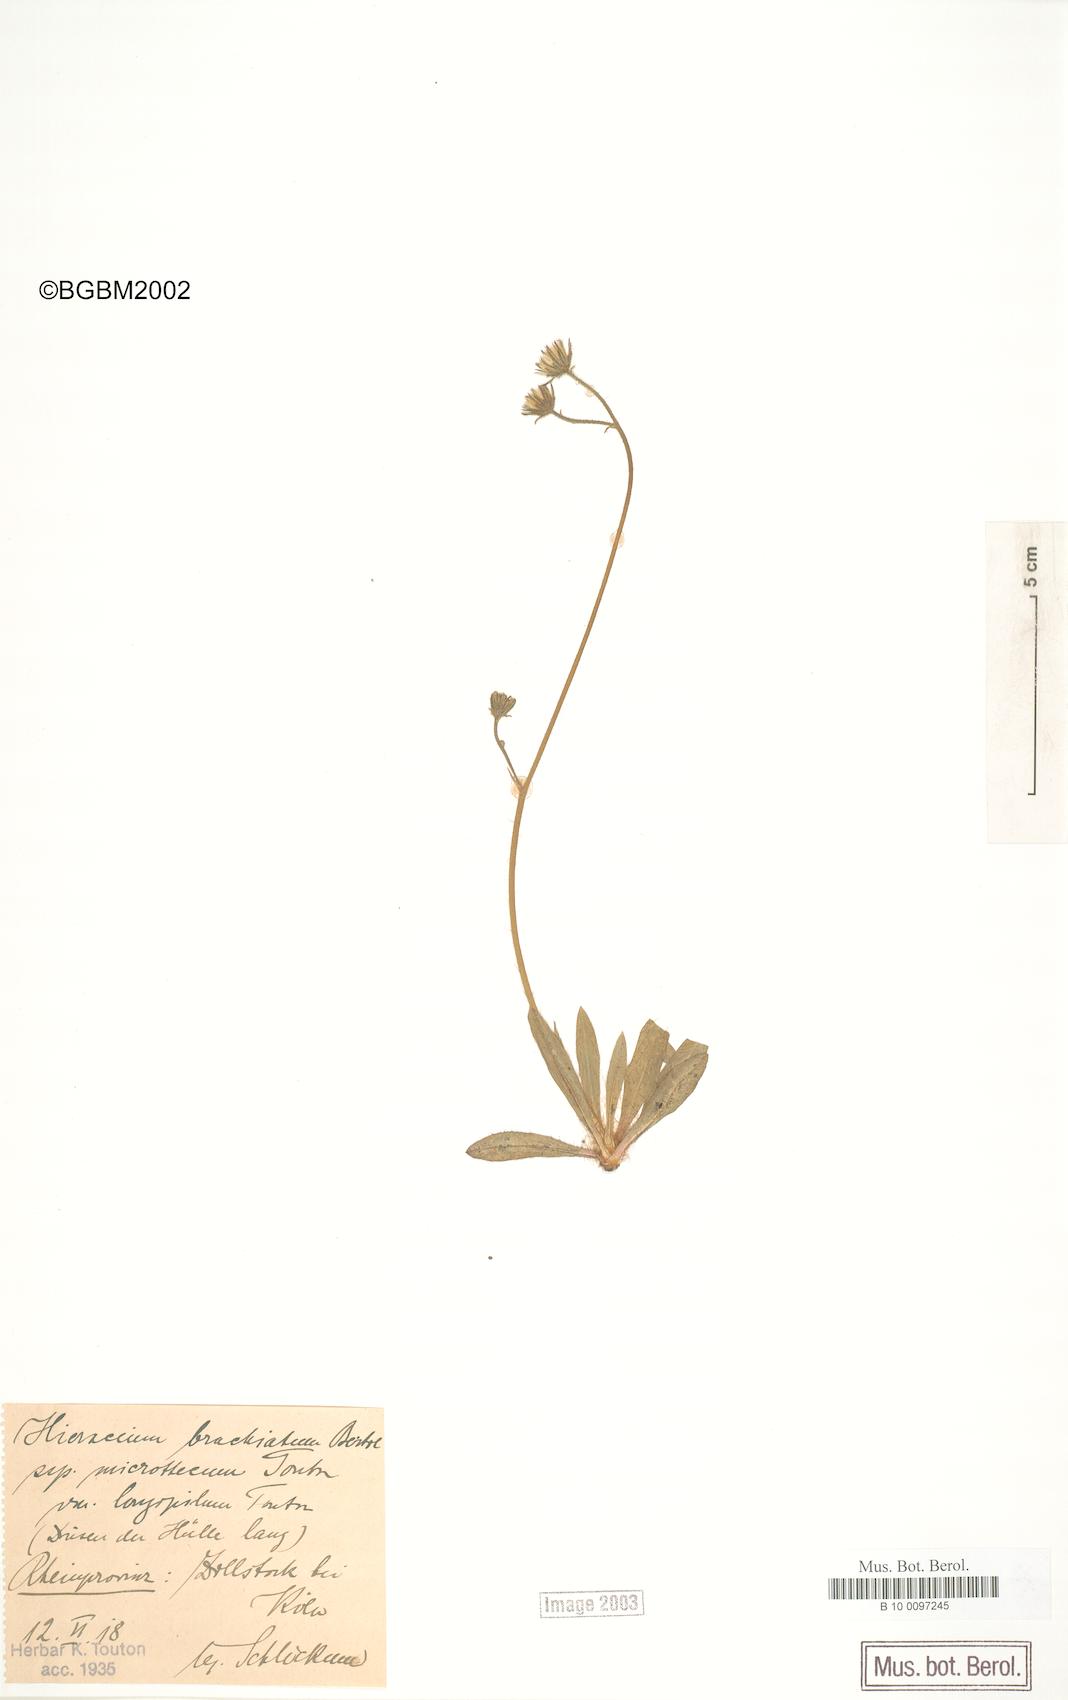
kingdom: Plantae
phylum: Tracheophyta
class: Magnoliopsida
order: Asterales
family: Asteraceae
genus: Pilosella
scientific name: Pilosella acutifolia
